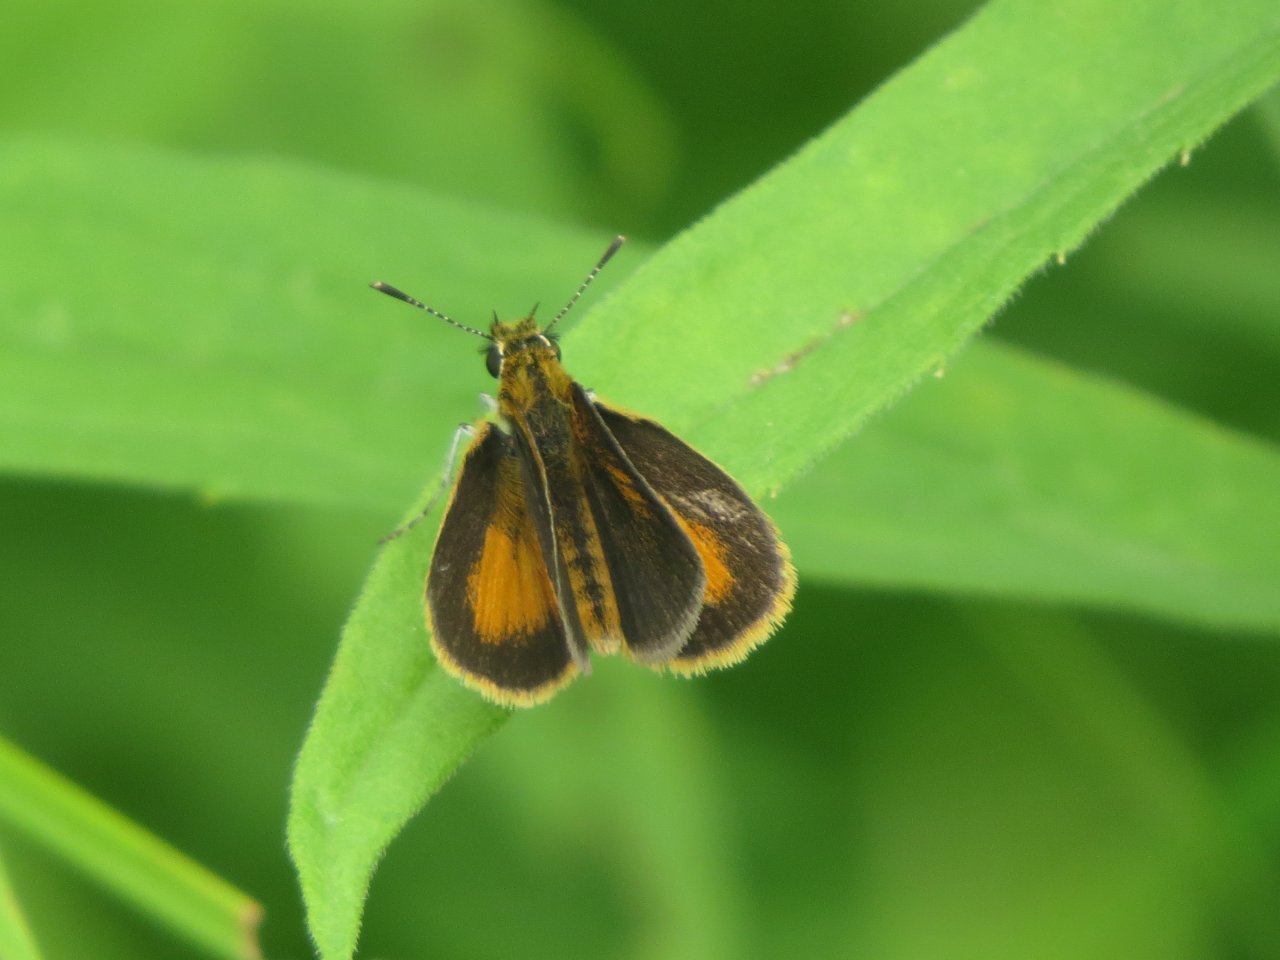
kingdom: Animalia
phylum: Arthropoda
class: Insecta
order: Lepidoptera
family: Hesperiidae
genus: Ancyloxypha
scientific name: Ancyloxypha numitor
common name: Least Skipper
